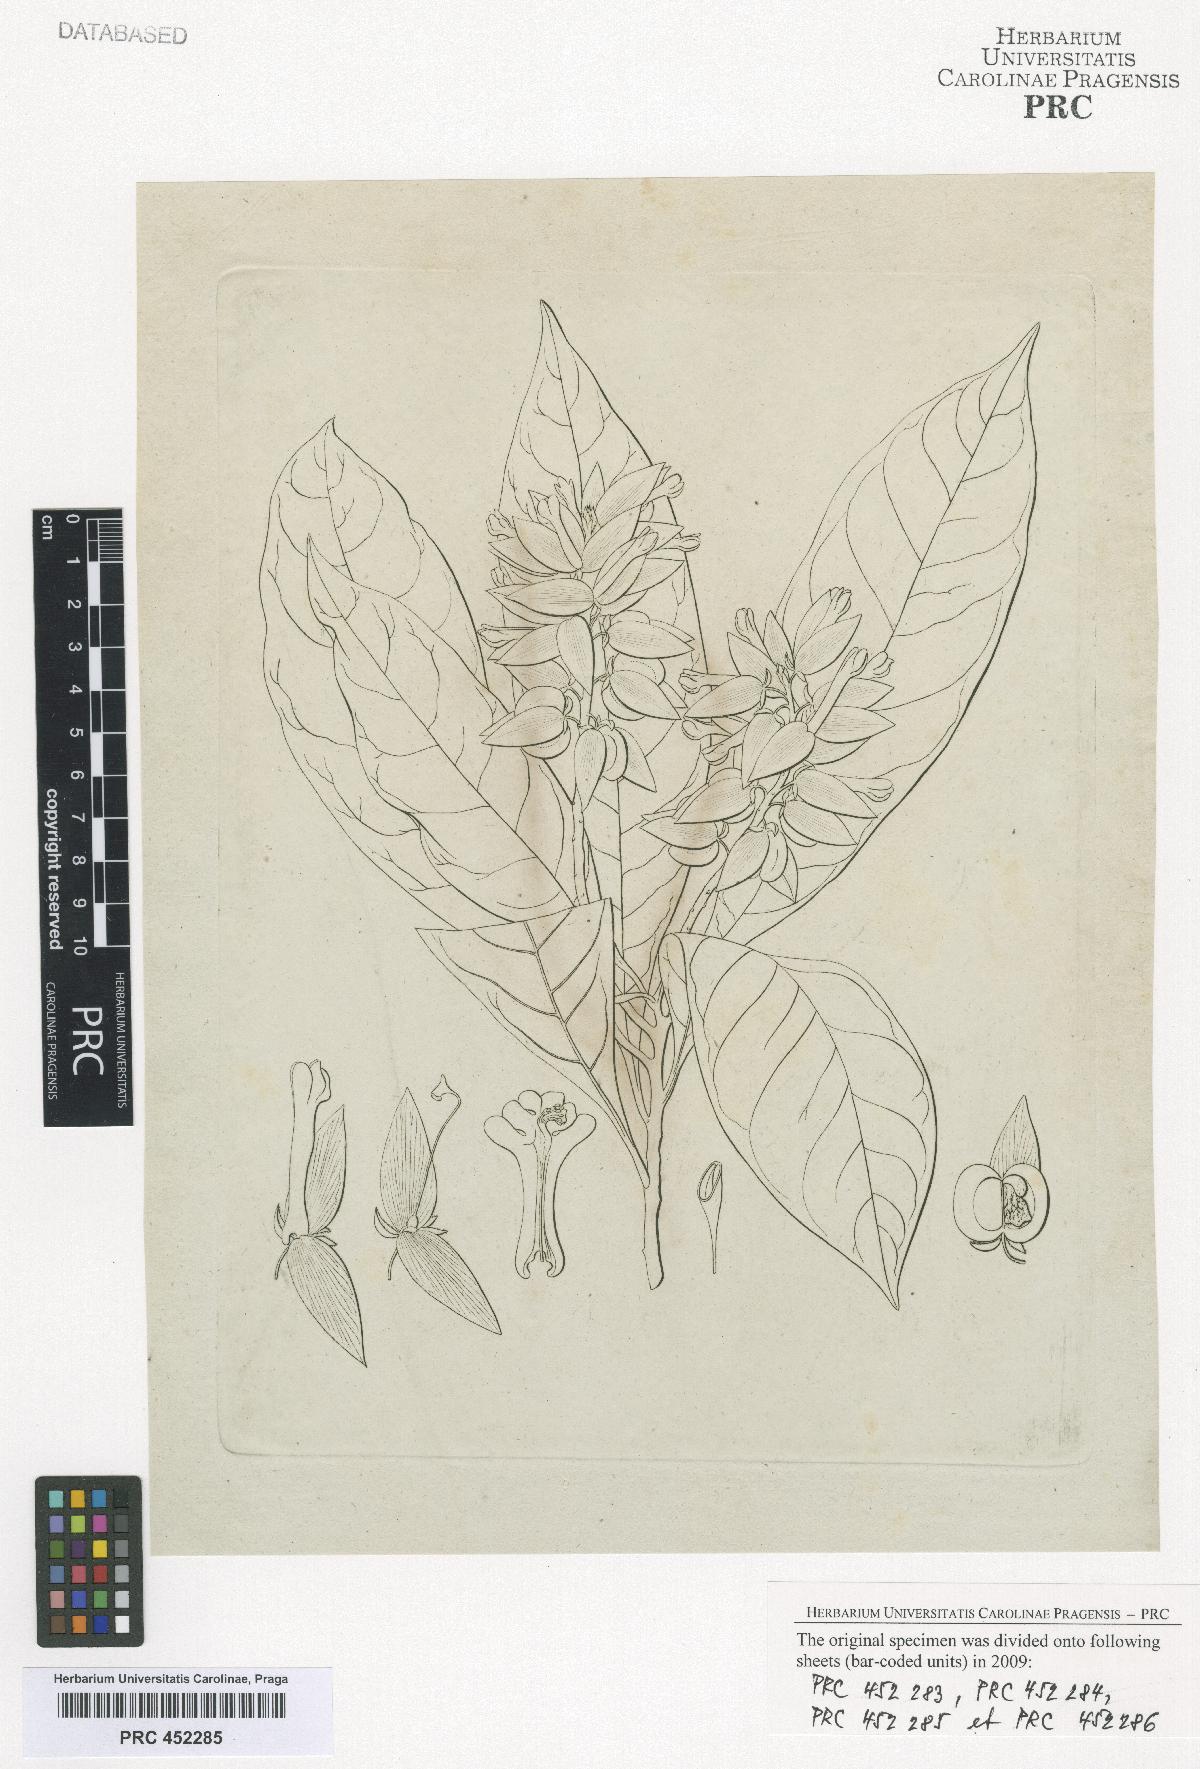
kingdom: Plantae
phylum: Tracheophyta
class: Magnoliopsida
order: Fabales
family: Polygalaceae
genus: Polygala
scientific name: Polygala
